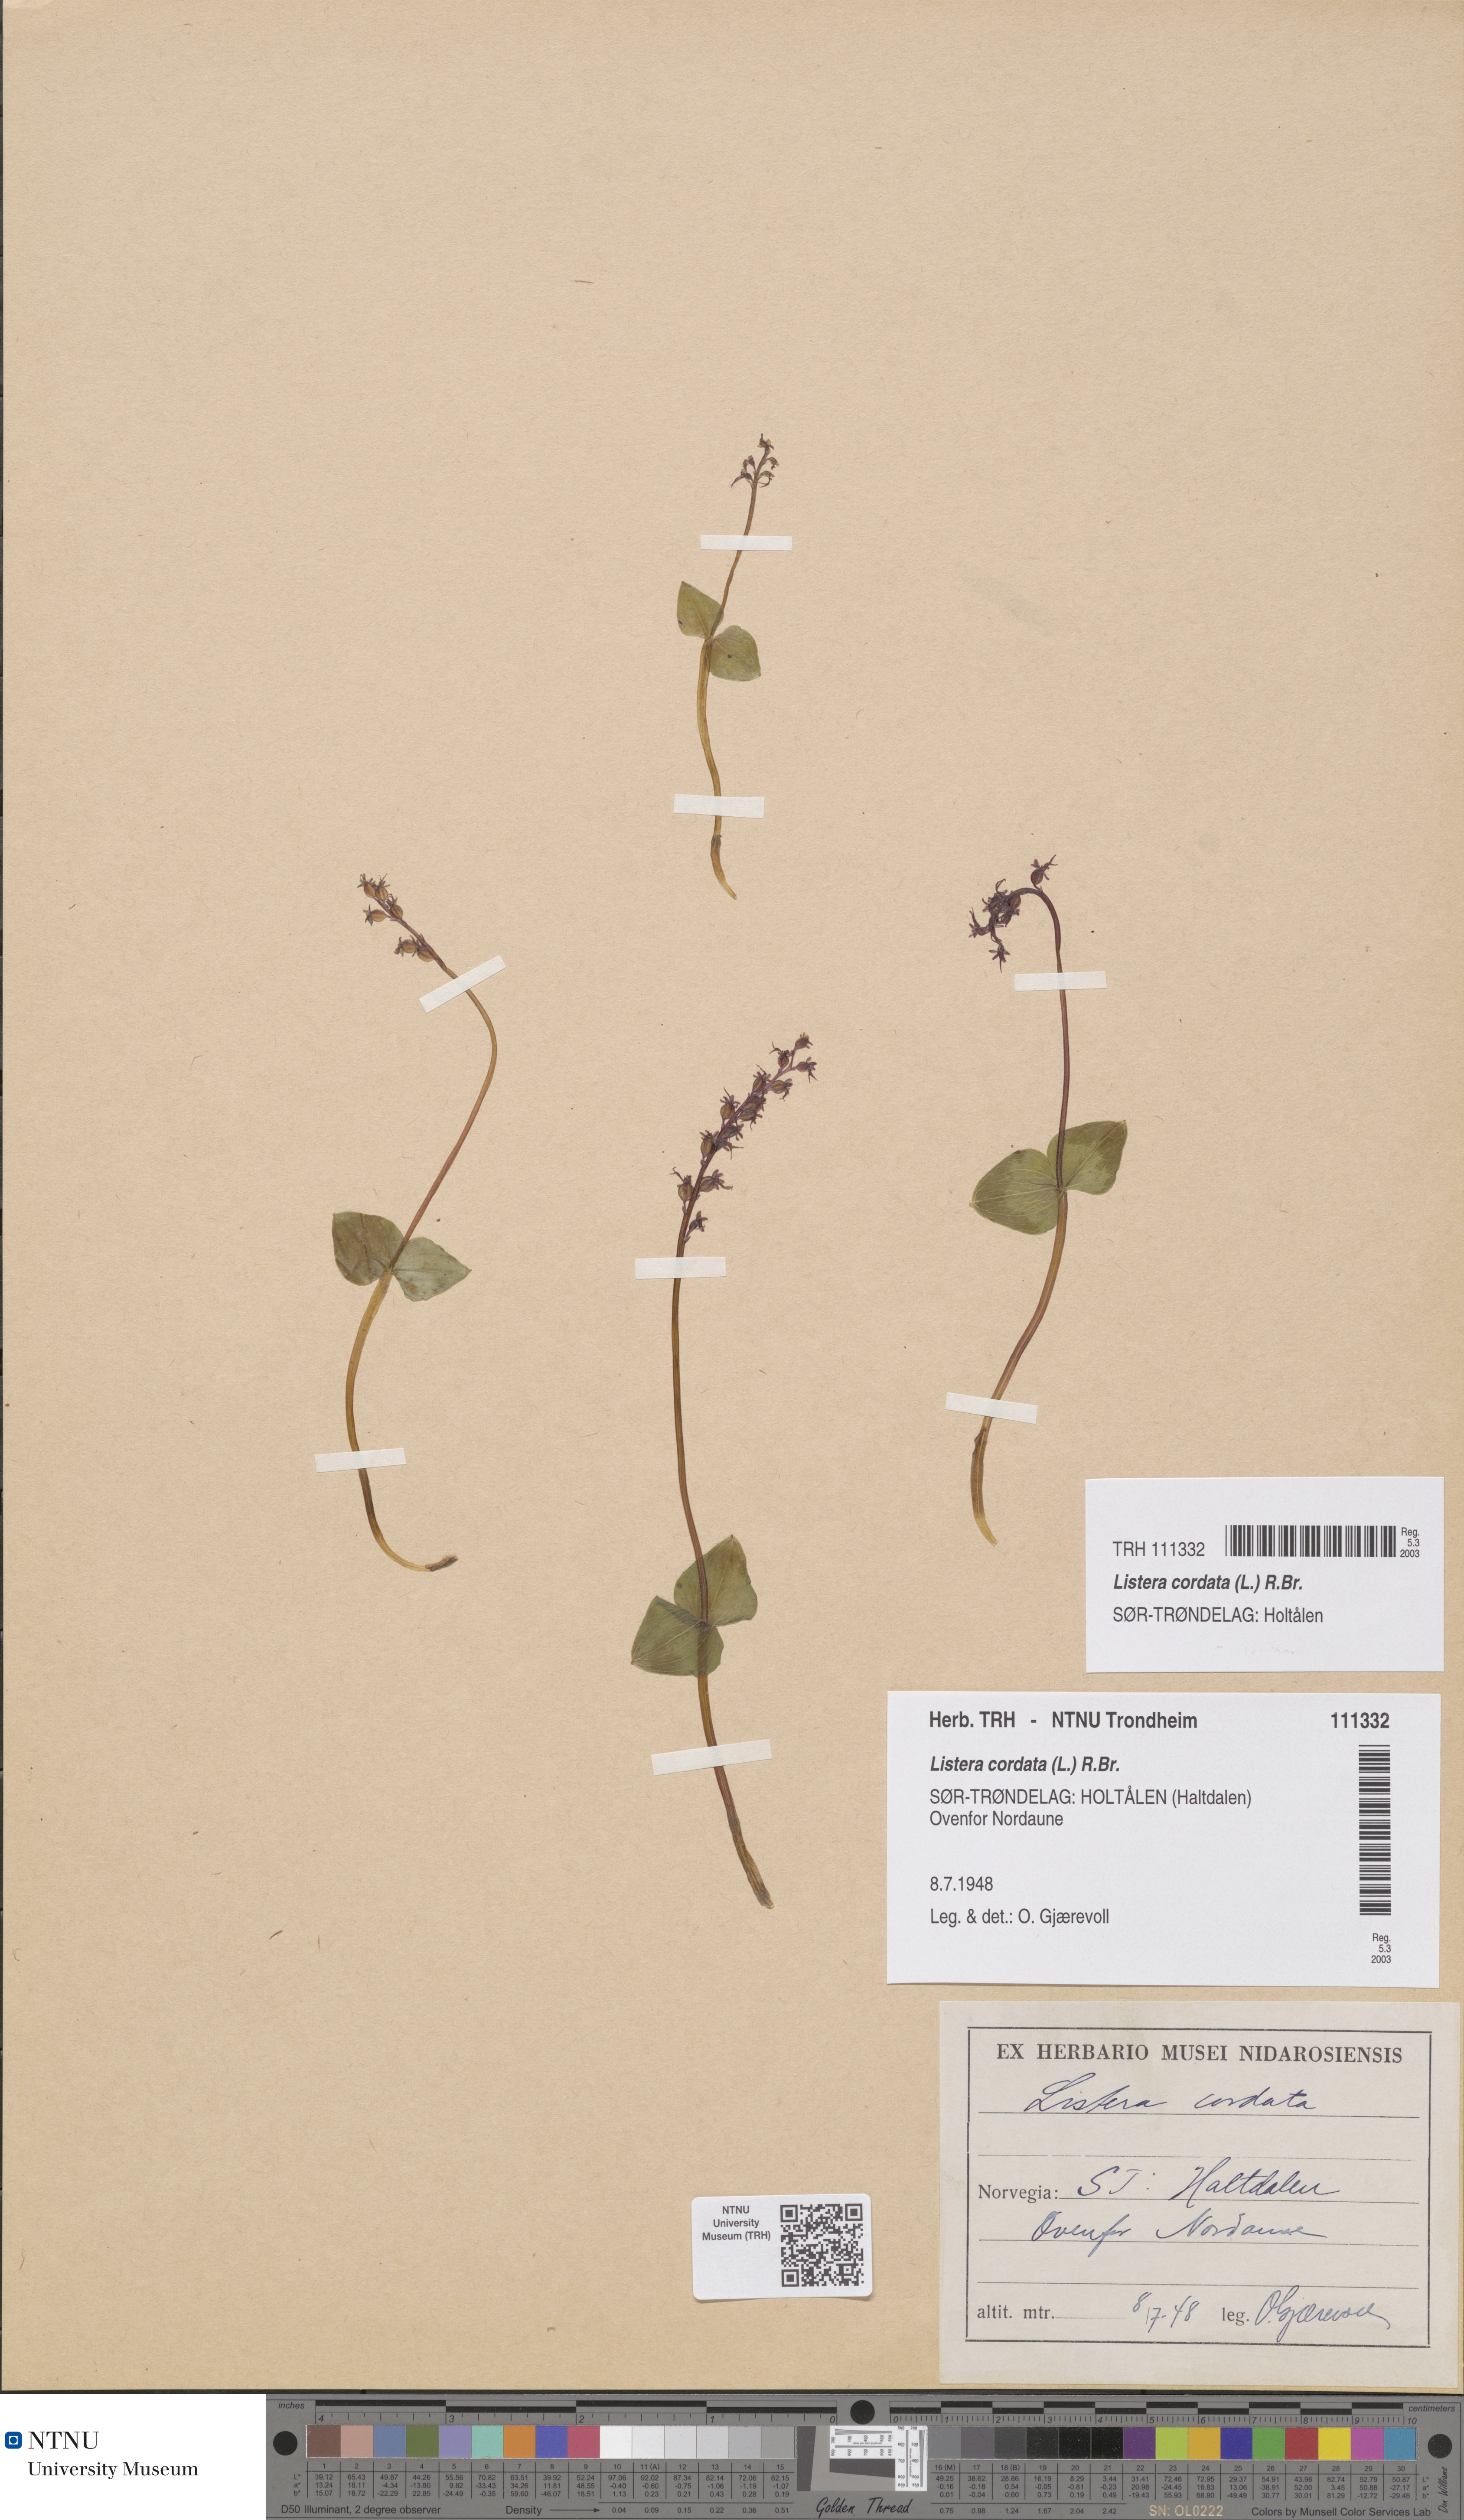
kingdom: Plantae
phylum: Tracheophyta
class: Liliopsida
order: Asparagales
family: Orchidaceae
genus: Neottia
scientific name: Neottia cordata
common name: Lesser twayblade
